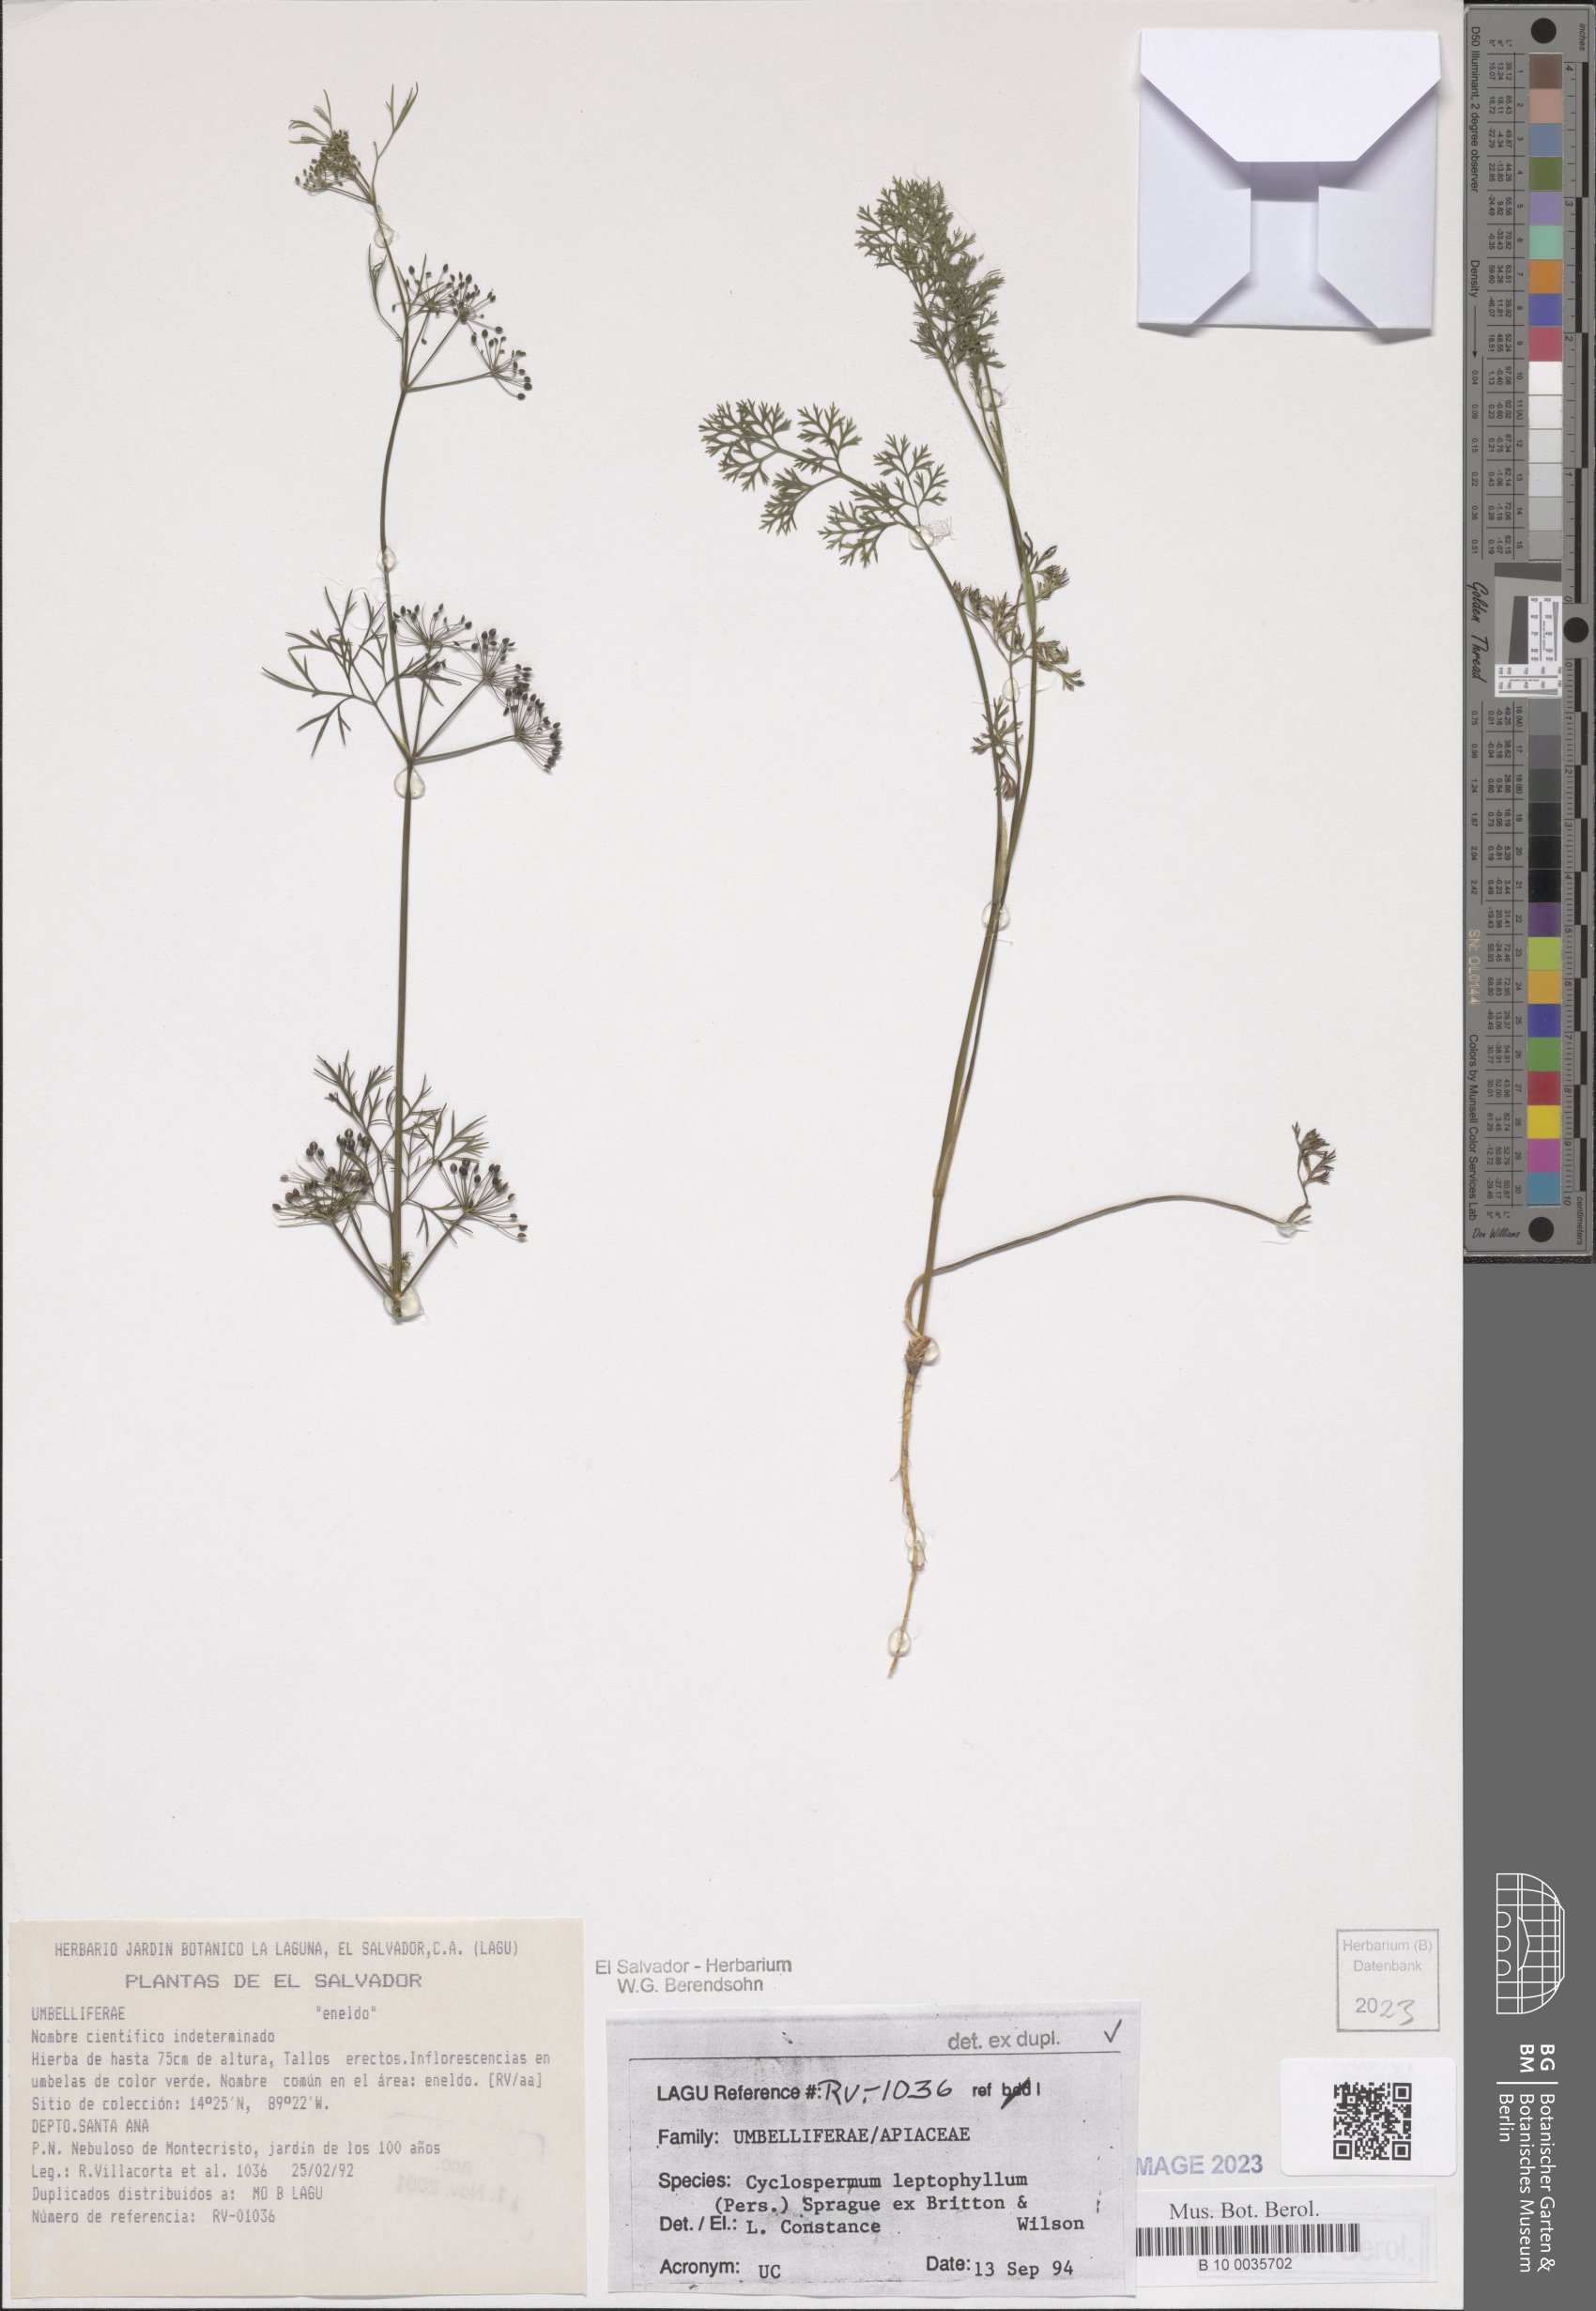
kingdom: Plantae
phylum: Tracheophyta
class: Magnoliopsida
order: Apiales
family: Apiaceae
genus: Cyclospermum
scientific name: Cyclospermum leptophyllum
